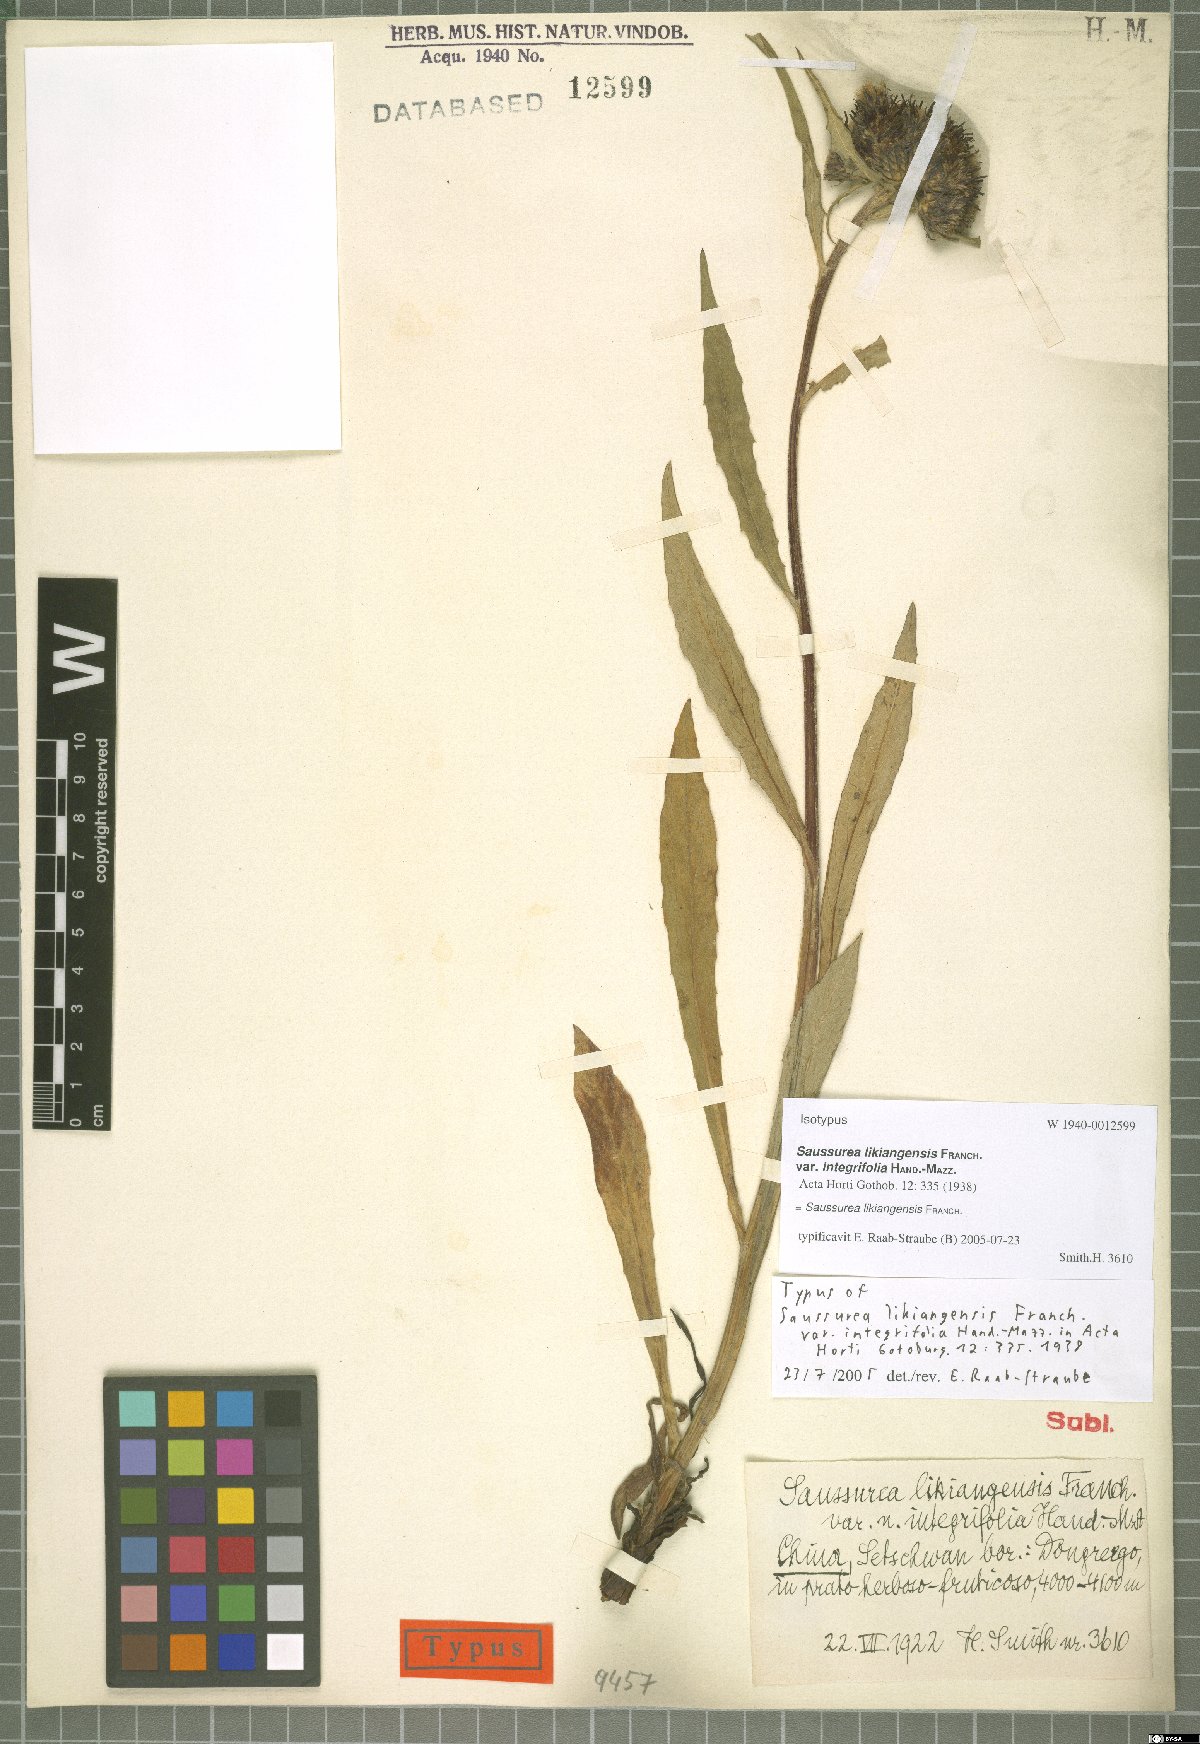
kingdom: Plantae
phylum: Tracheophyta
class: Magnoliopsida
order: Asterales
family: Asteraceae
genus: Saussurea
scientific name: Saussurea przewalskii
